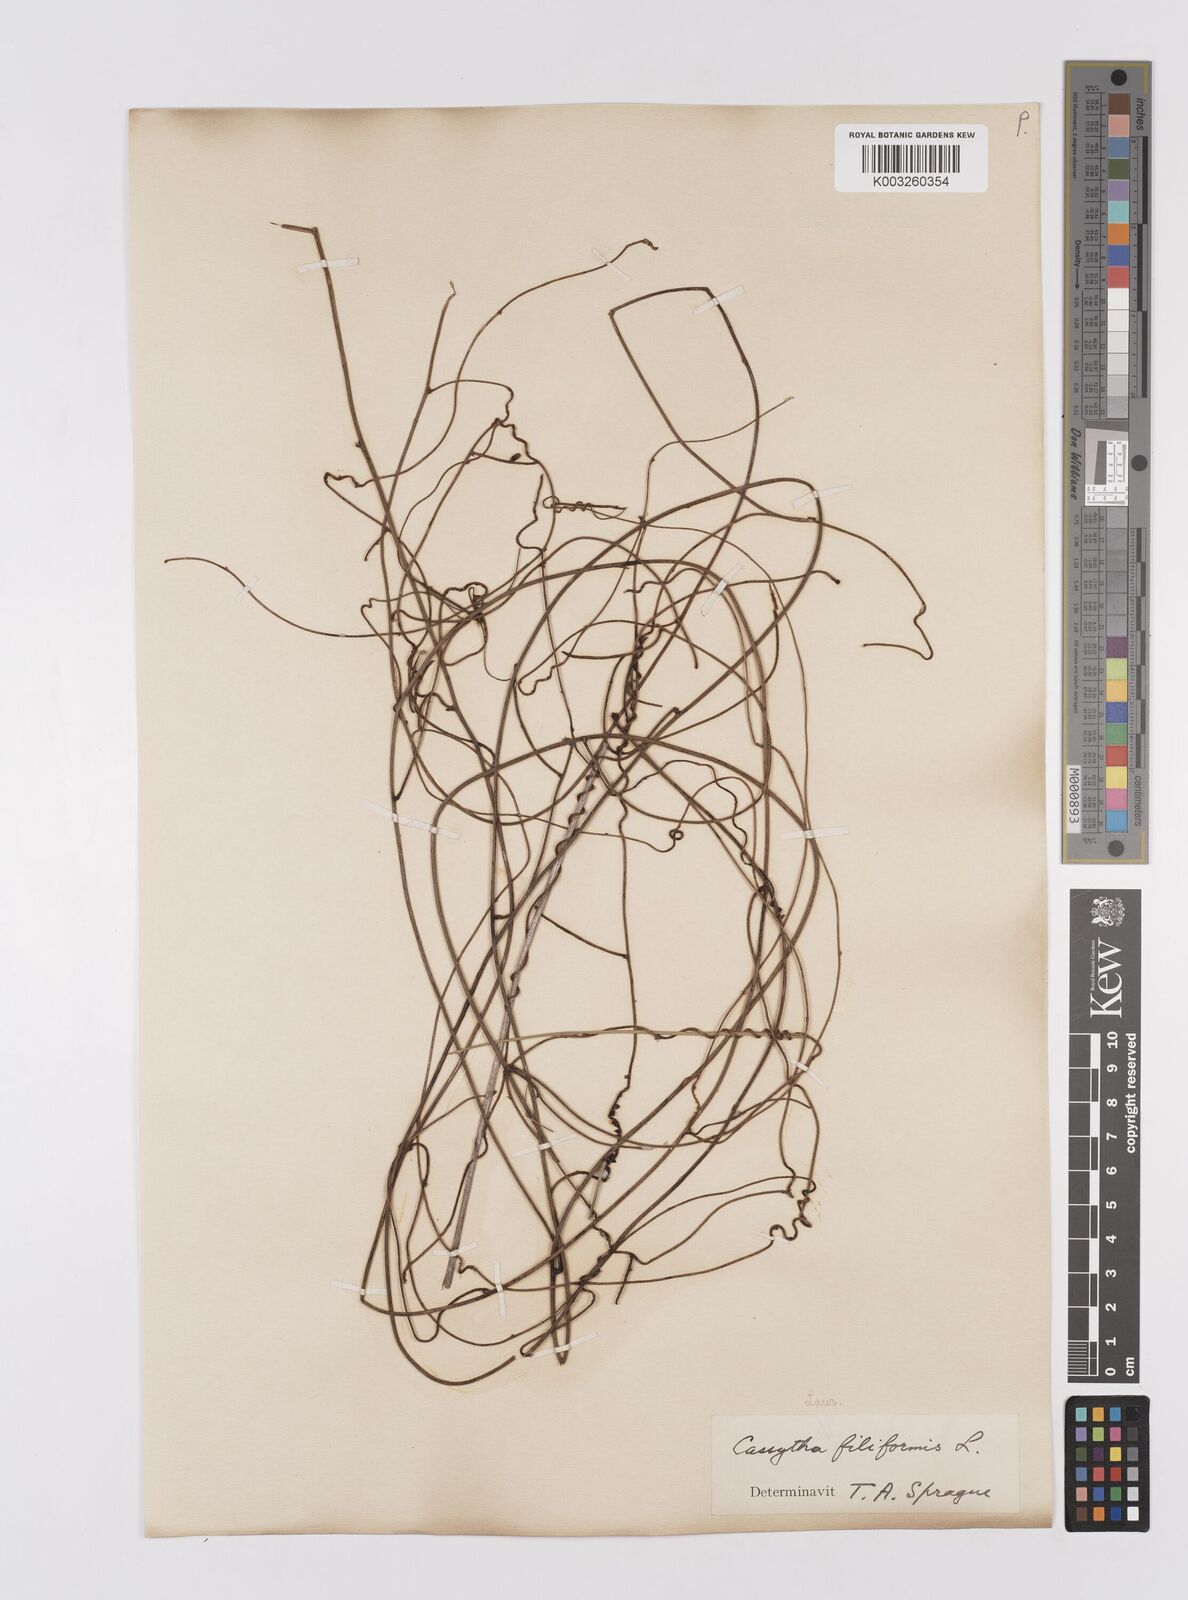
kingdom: Plantae
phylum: Tracheophyta
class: Magnoliopsida
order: Laurales
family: Lauraceae
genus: Cassytha
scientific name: Cassytha filiformis
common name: Dodder-laurel
